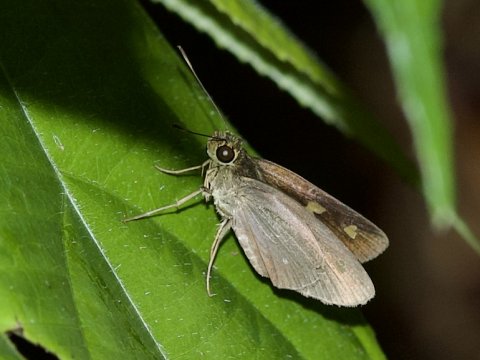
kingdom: Animalia
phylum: Arthropoda
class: Insecta
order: Lepidoptera
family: Hesperiidae
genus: Calpodes
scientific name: Calpodes ethlius
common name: Brazilian Skipper
